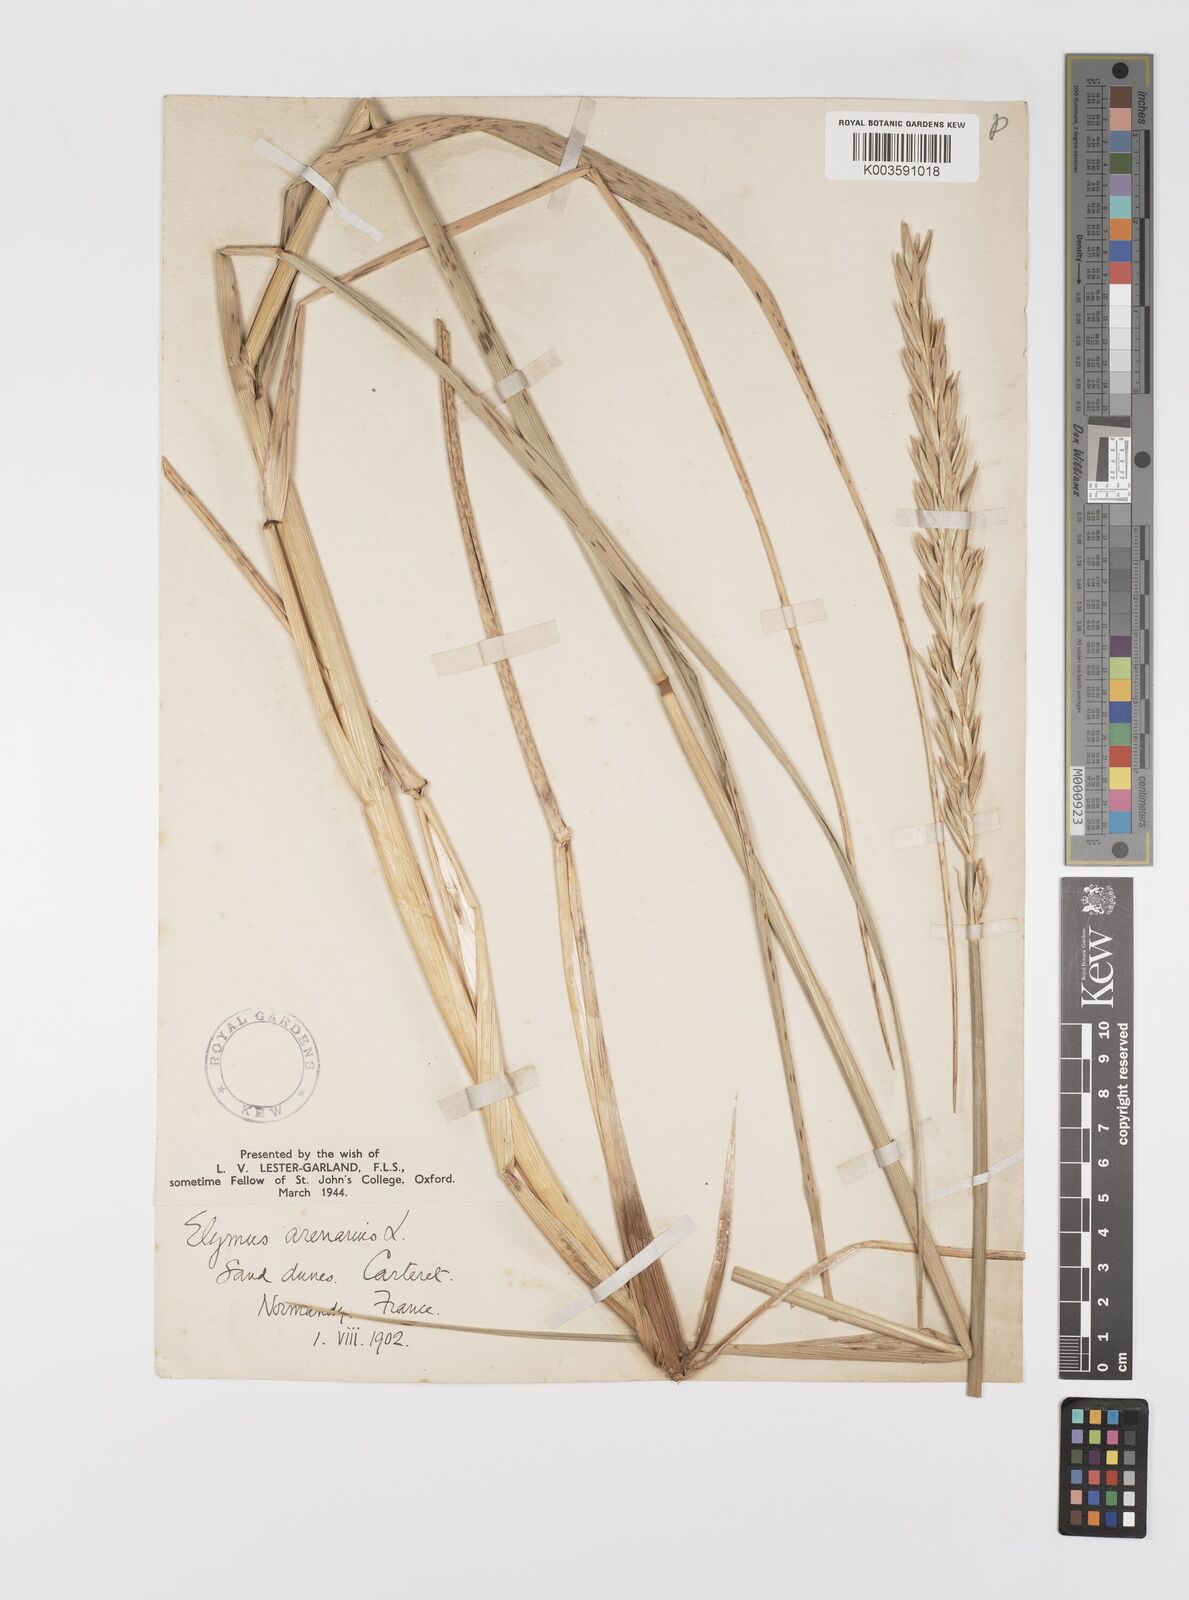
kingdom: Plantae
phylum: Tracheophyta
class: Liliopsida
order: Poales
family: Poaceae
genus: Leymus
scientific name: Leymus arenarius
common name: Lyme-grass
